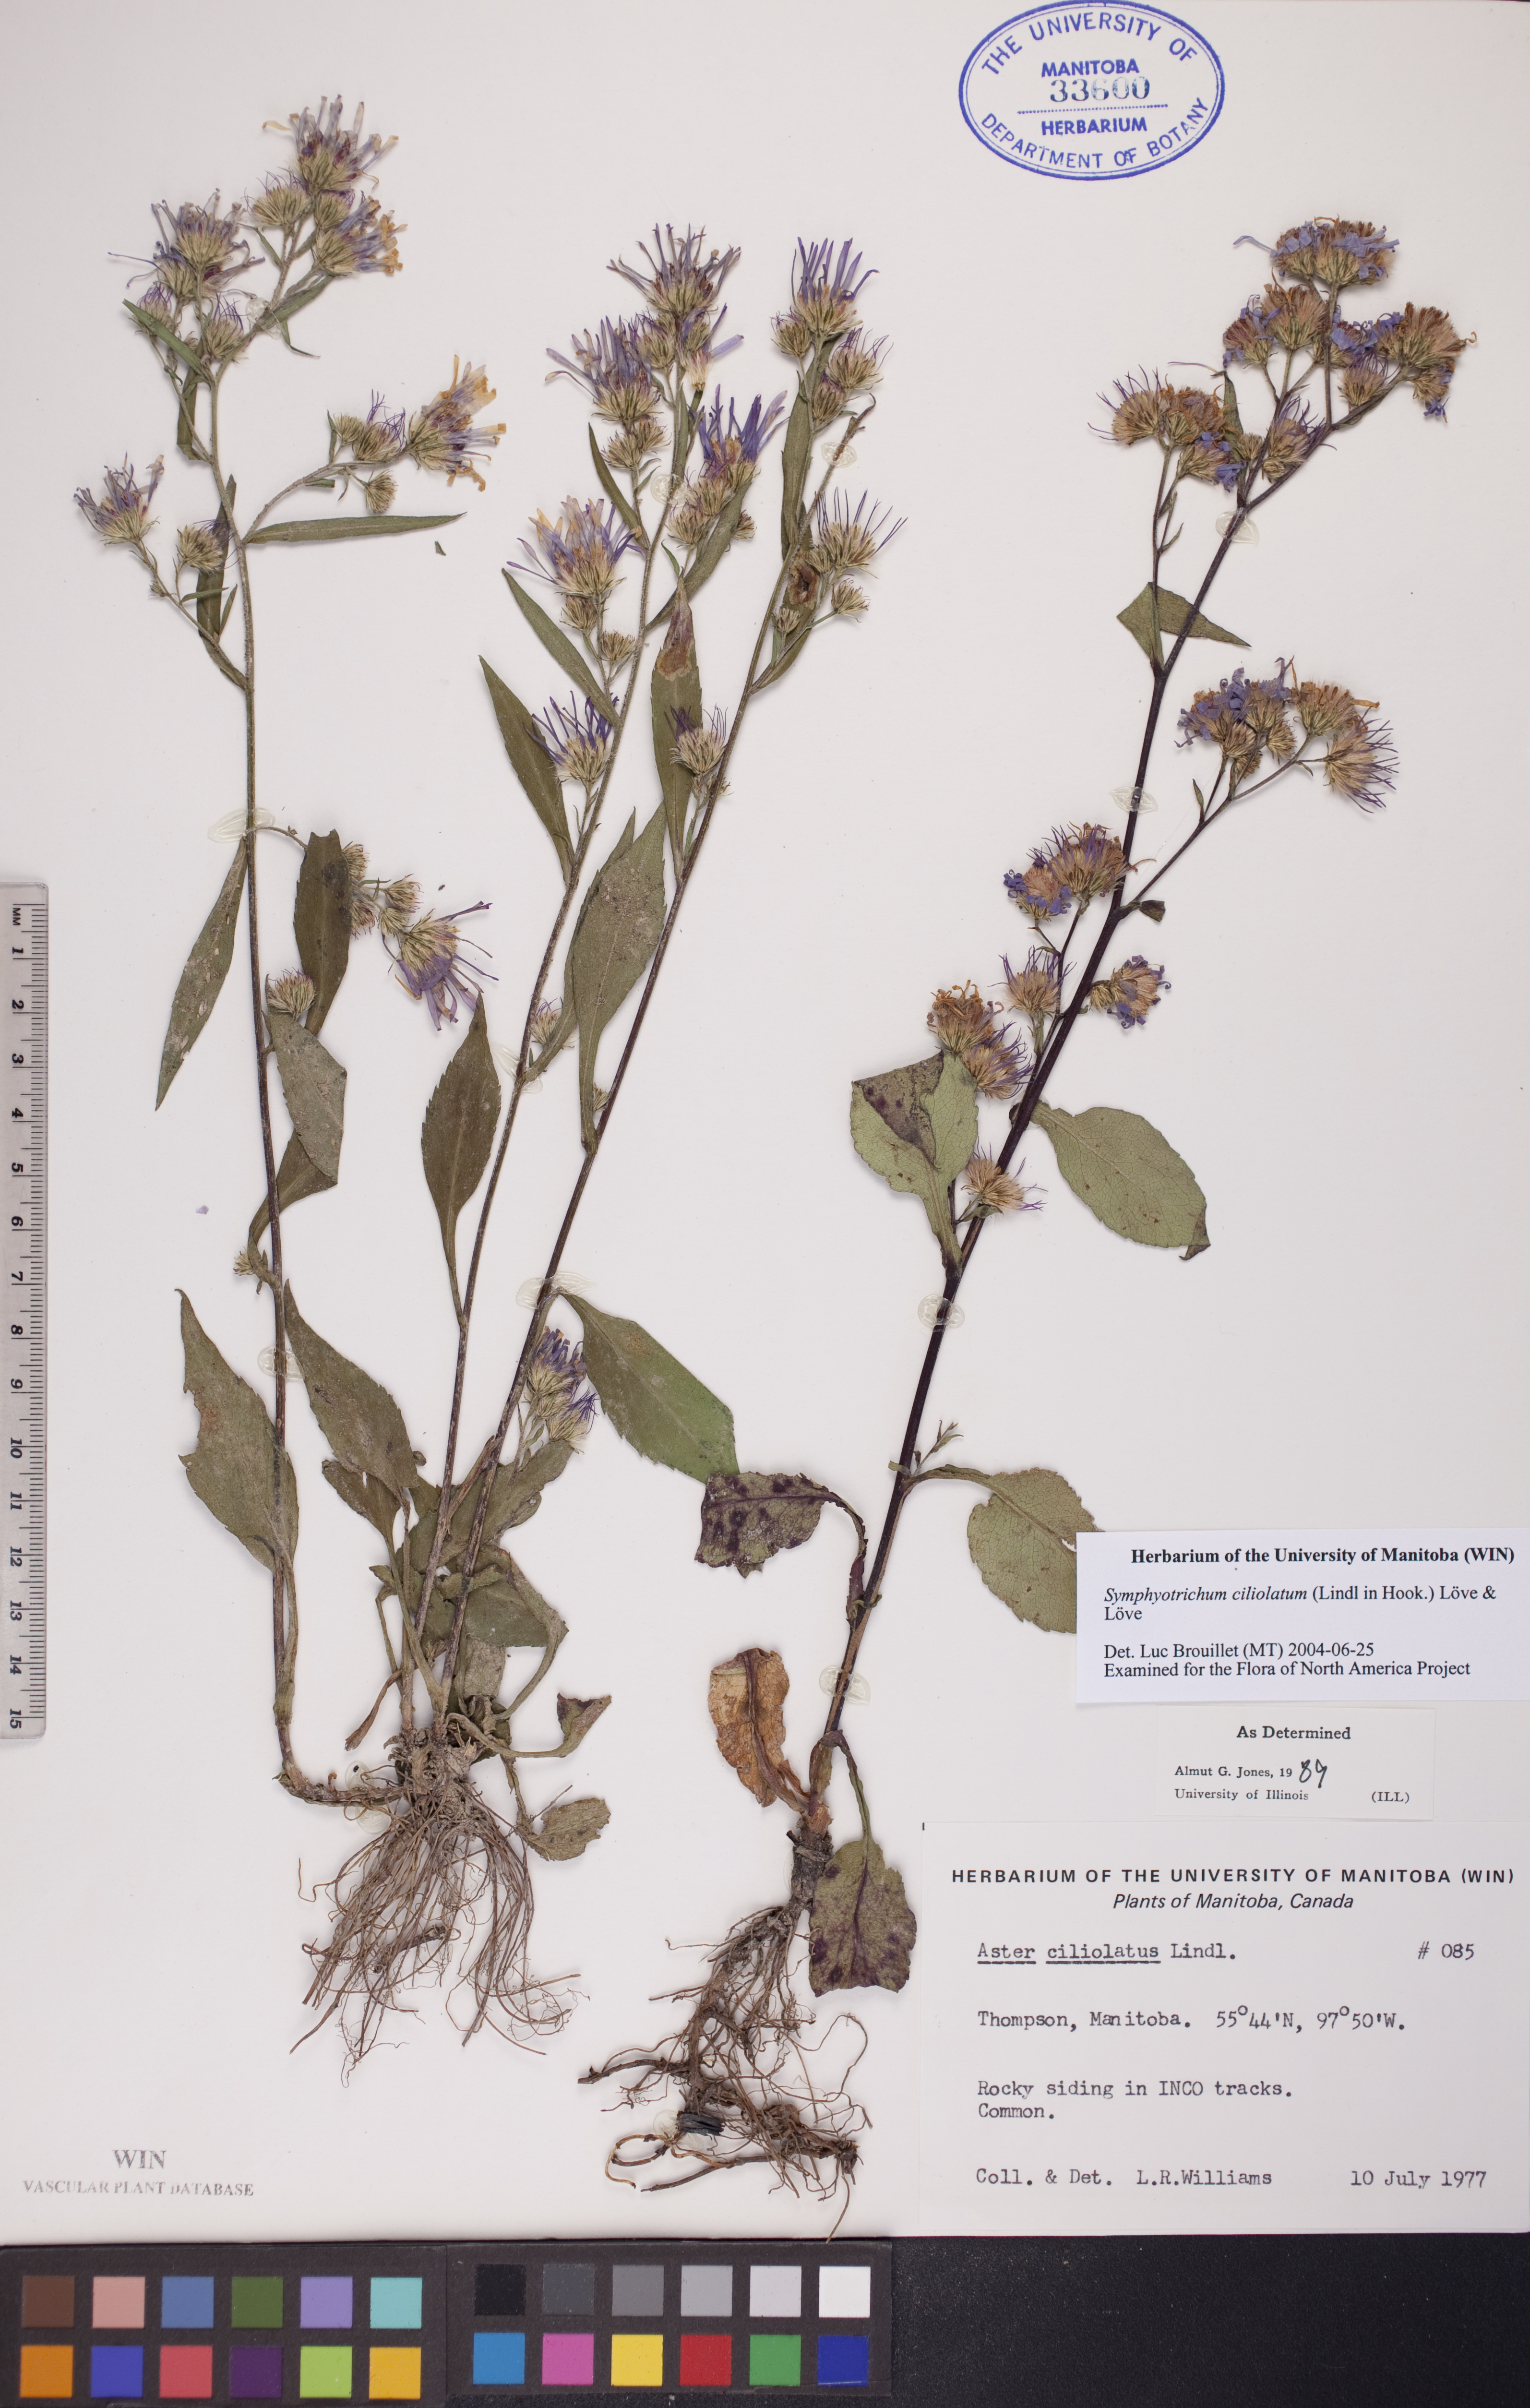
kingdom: Plantae
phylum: Tracheophyta
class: Magnoliopsida
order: Asterales
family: Asteraceae
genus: Symphyotrichum
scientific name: Symphyotrichum ciliolatum
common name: Fringed blue aster
